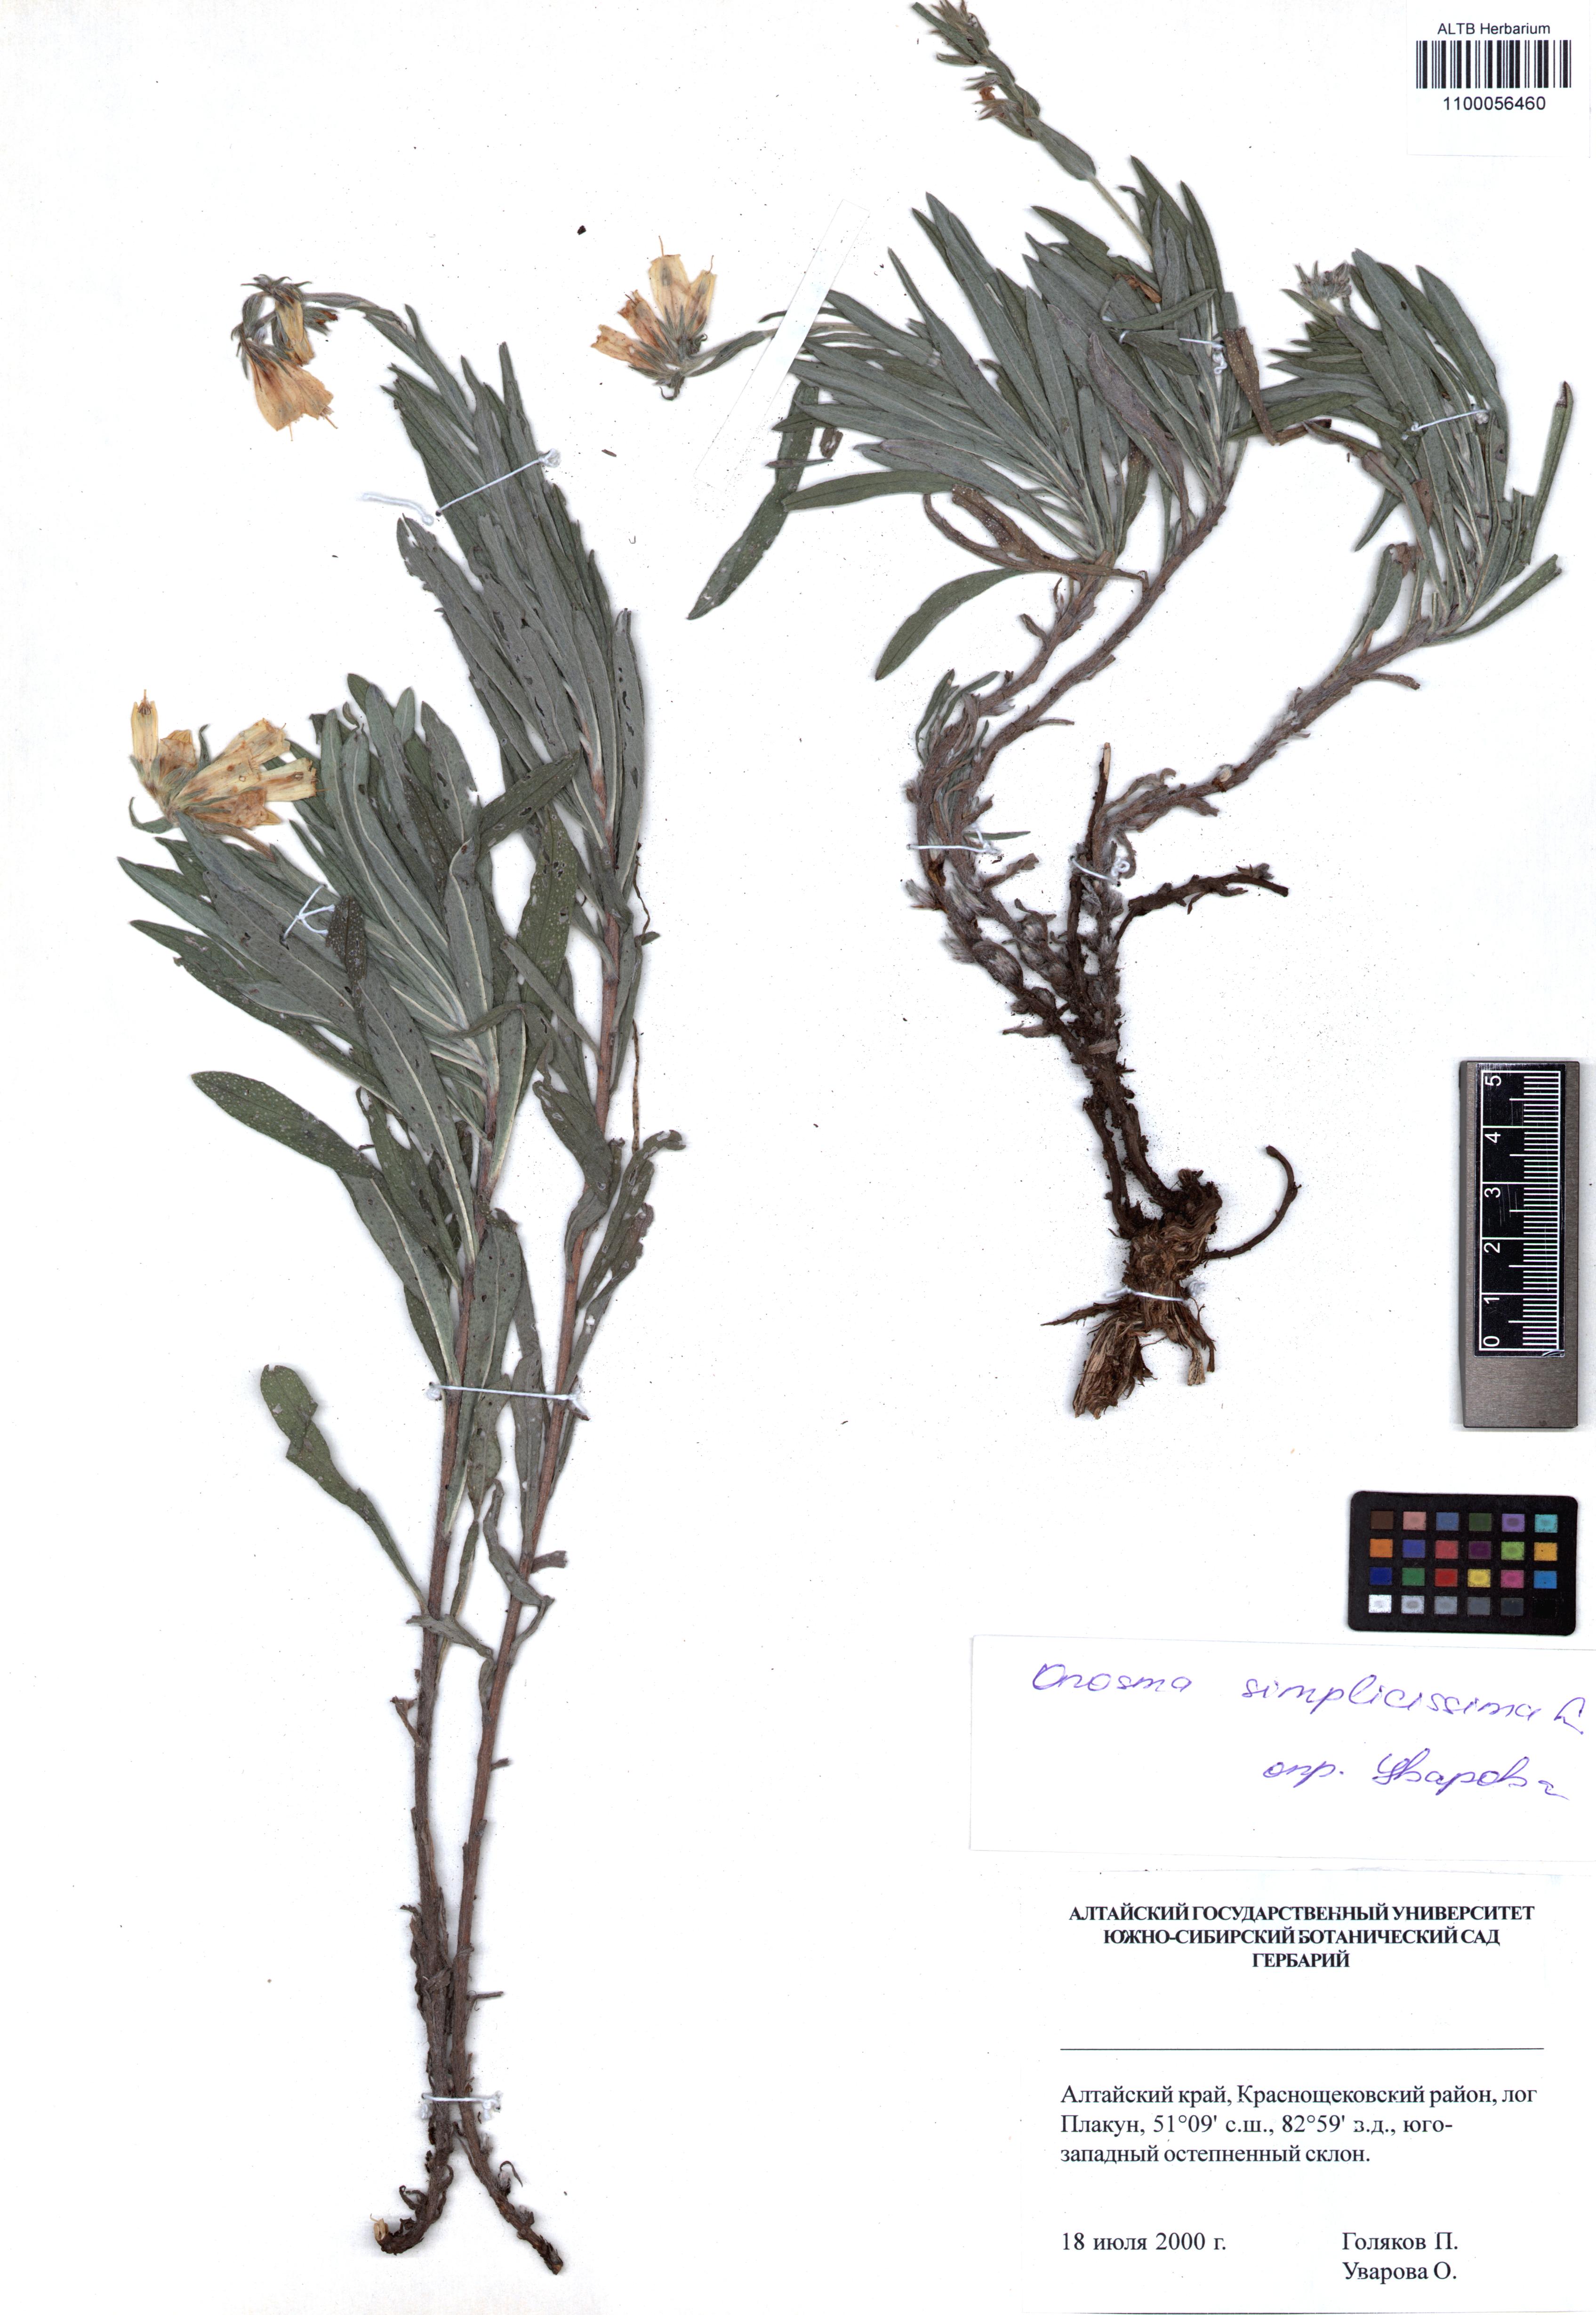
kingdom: Plantae
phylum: Tracheophyta
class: Magnoliopsida
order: Boraginales
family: Boraginaceae
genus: Onosma
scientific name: Onosma simplicissima
